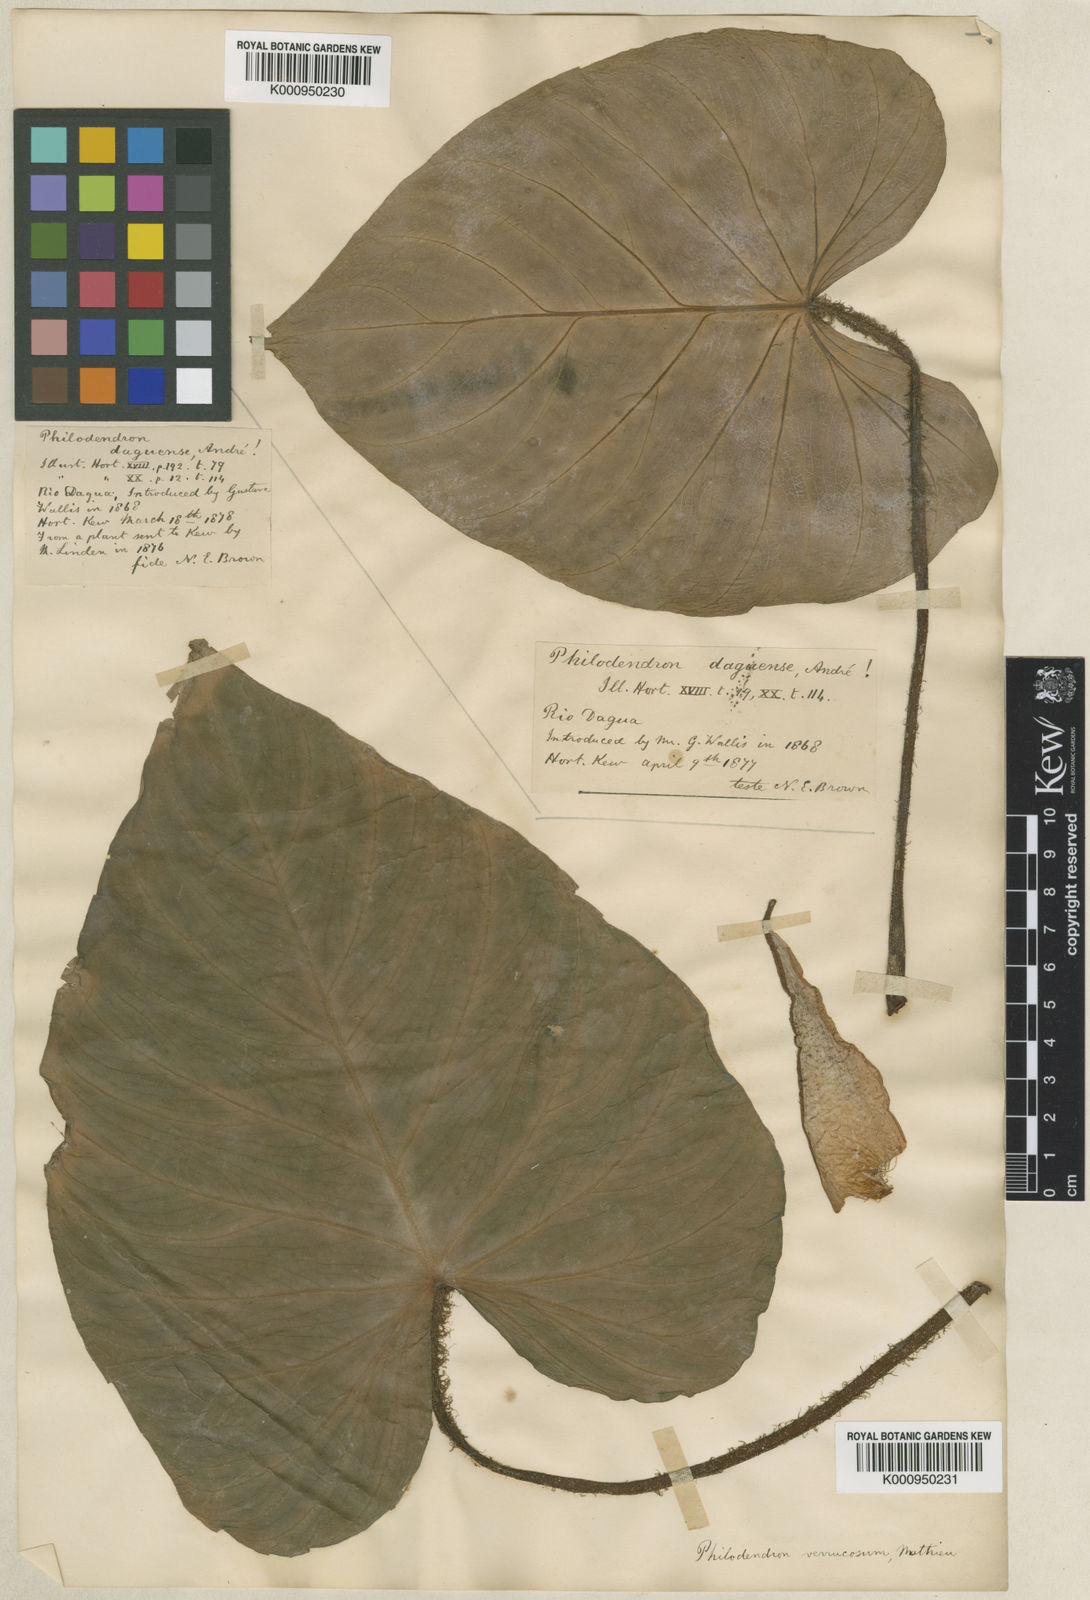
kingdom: Plantae
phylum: Tracheophyta
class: Liliopsida
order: Alismatales
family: Araceae
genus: Philodendron
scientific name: Philodendron verrucosum
